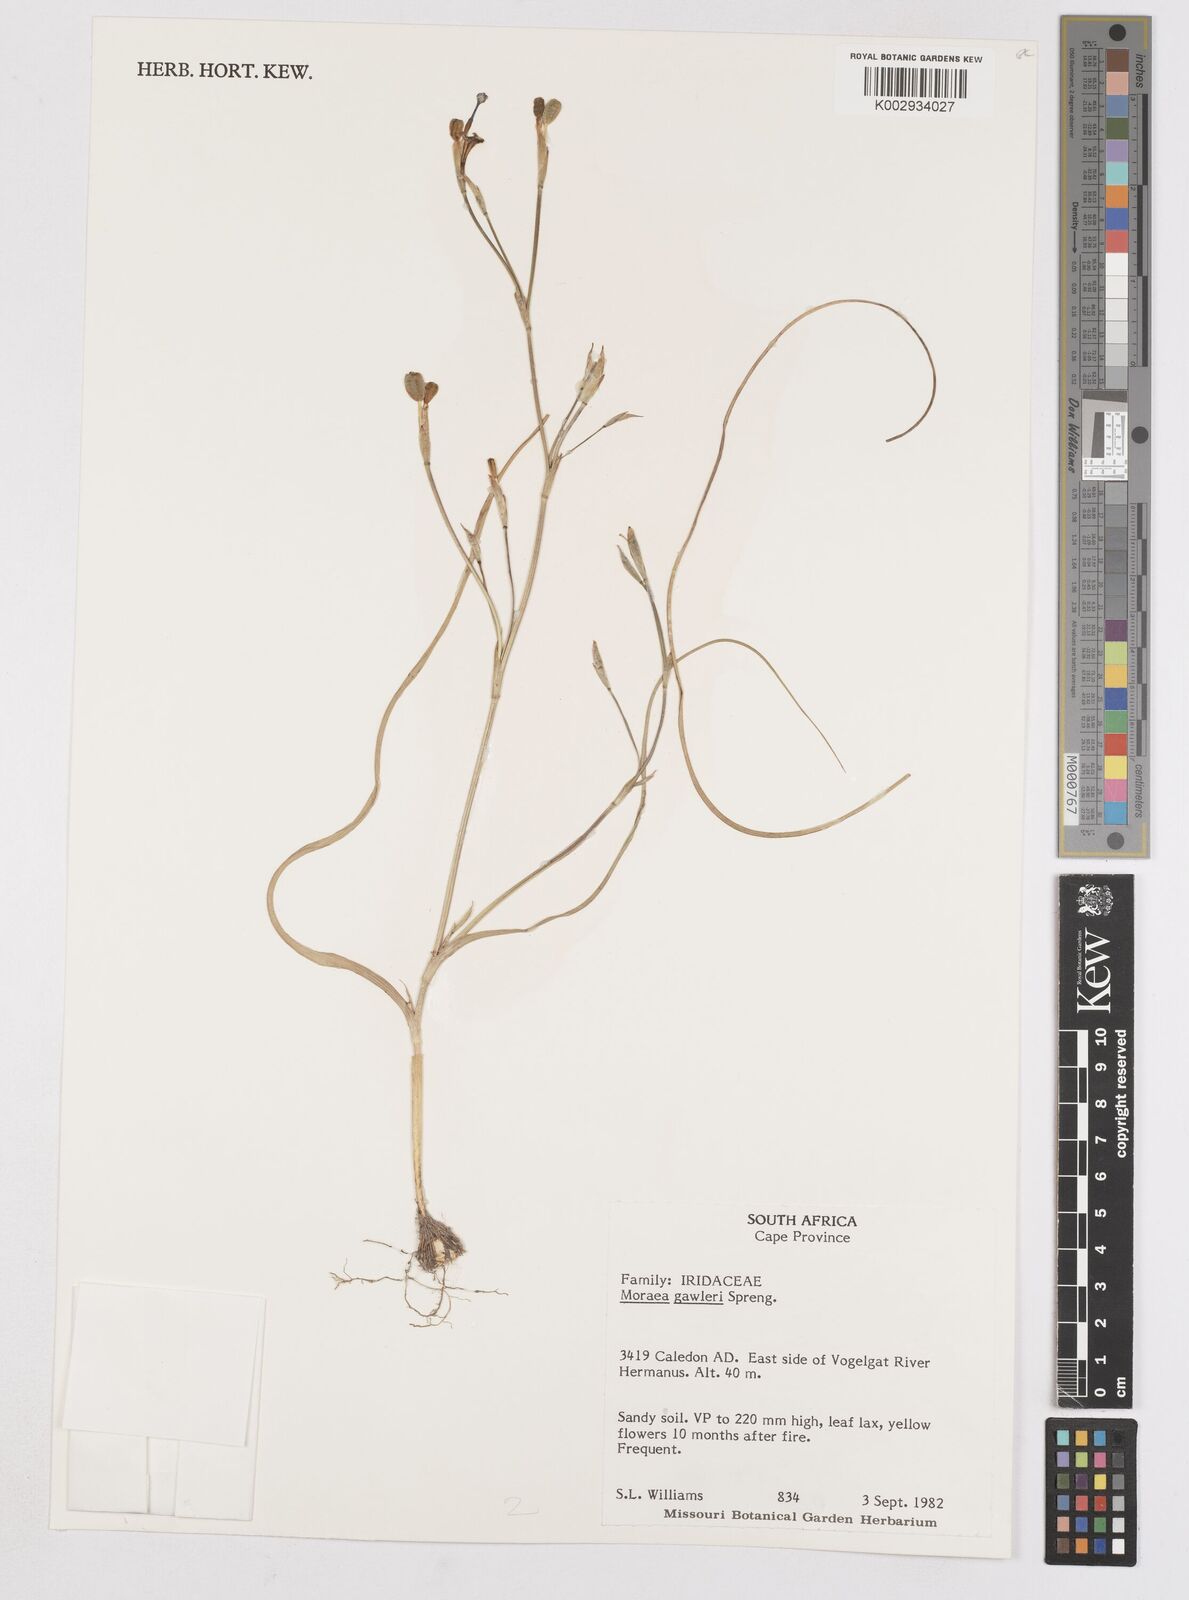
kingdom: Plantae
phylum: Tracheophyta
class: Liliopsida
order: Asparagales
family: Iridaceae
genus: Moraea
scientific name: Moraea gawleri
